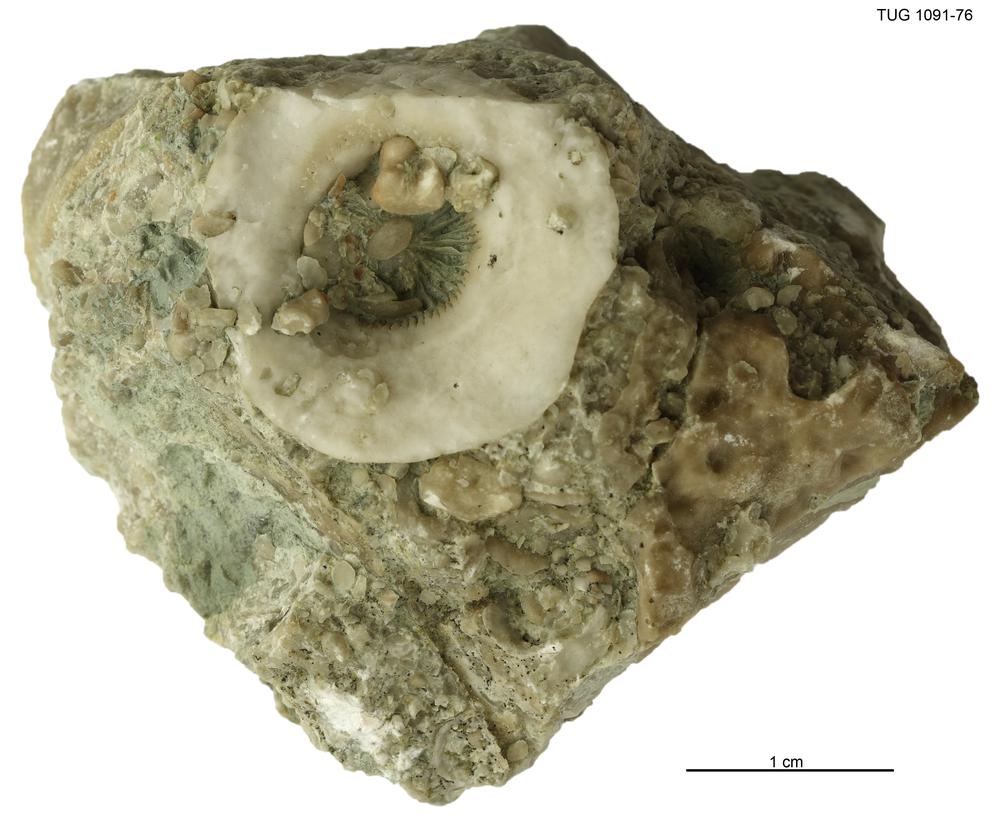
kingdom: Animalia
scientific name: Animalia
